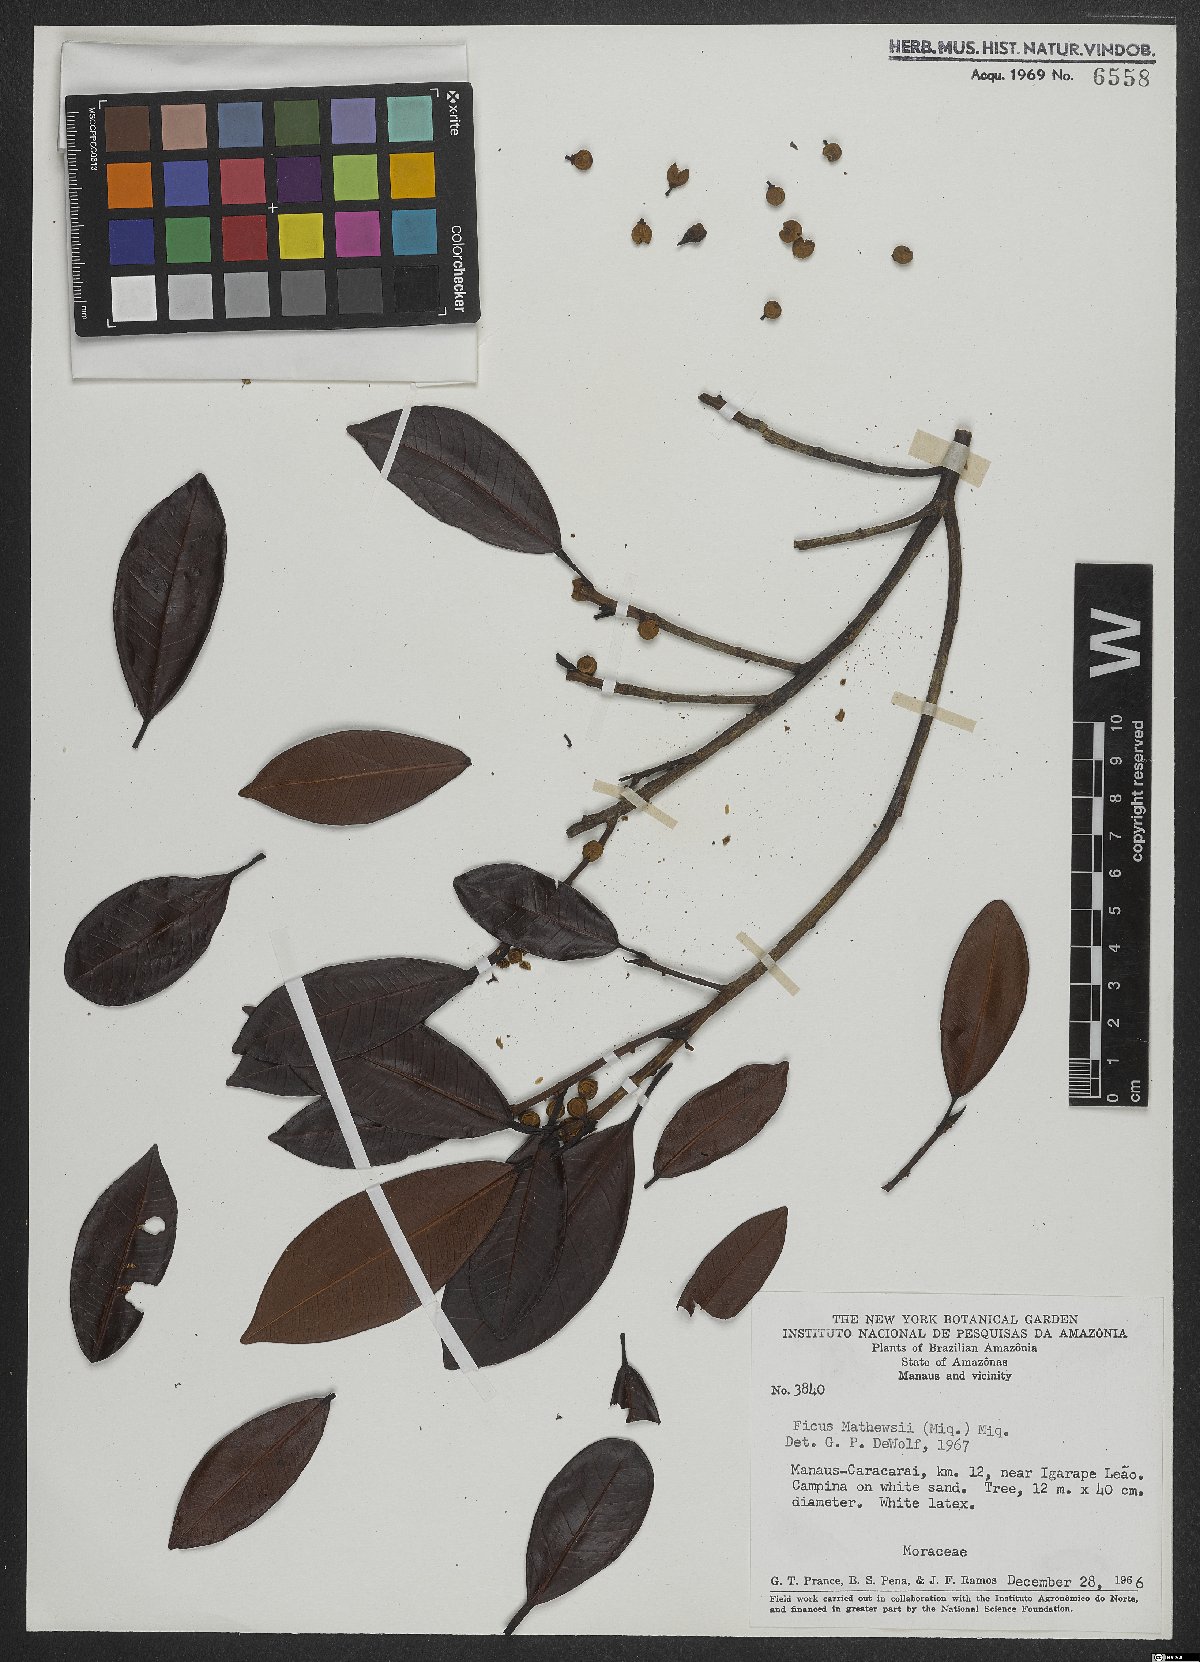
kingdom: Plantae
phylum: Tracheophyta
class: Magnoliopsida
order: Rosales
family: Moraceae
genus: Ficus
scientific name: Ficus mathewsii
